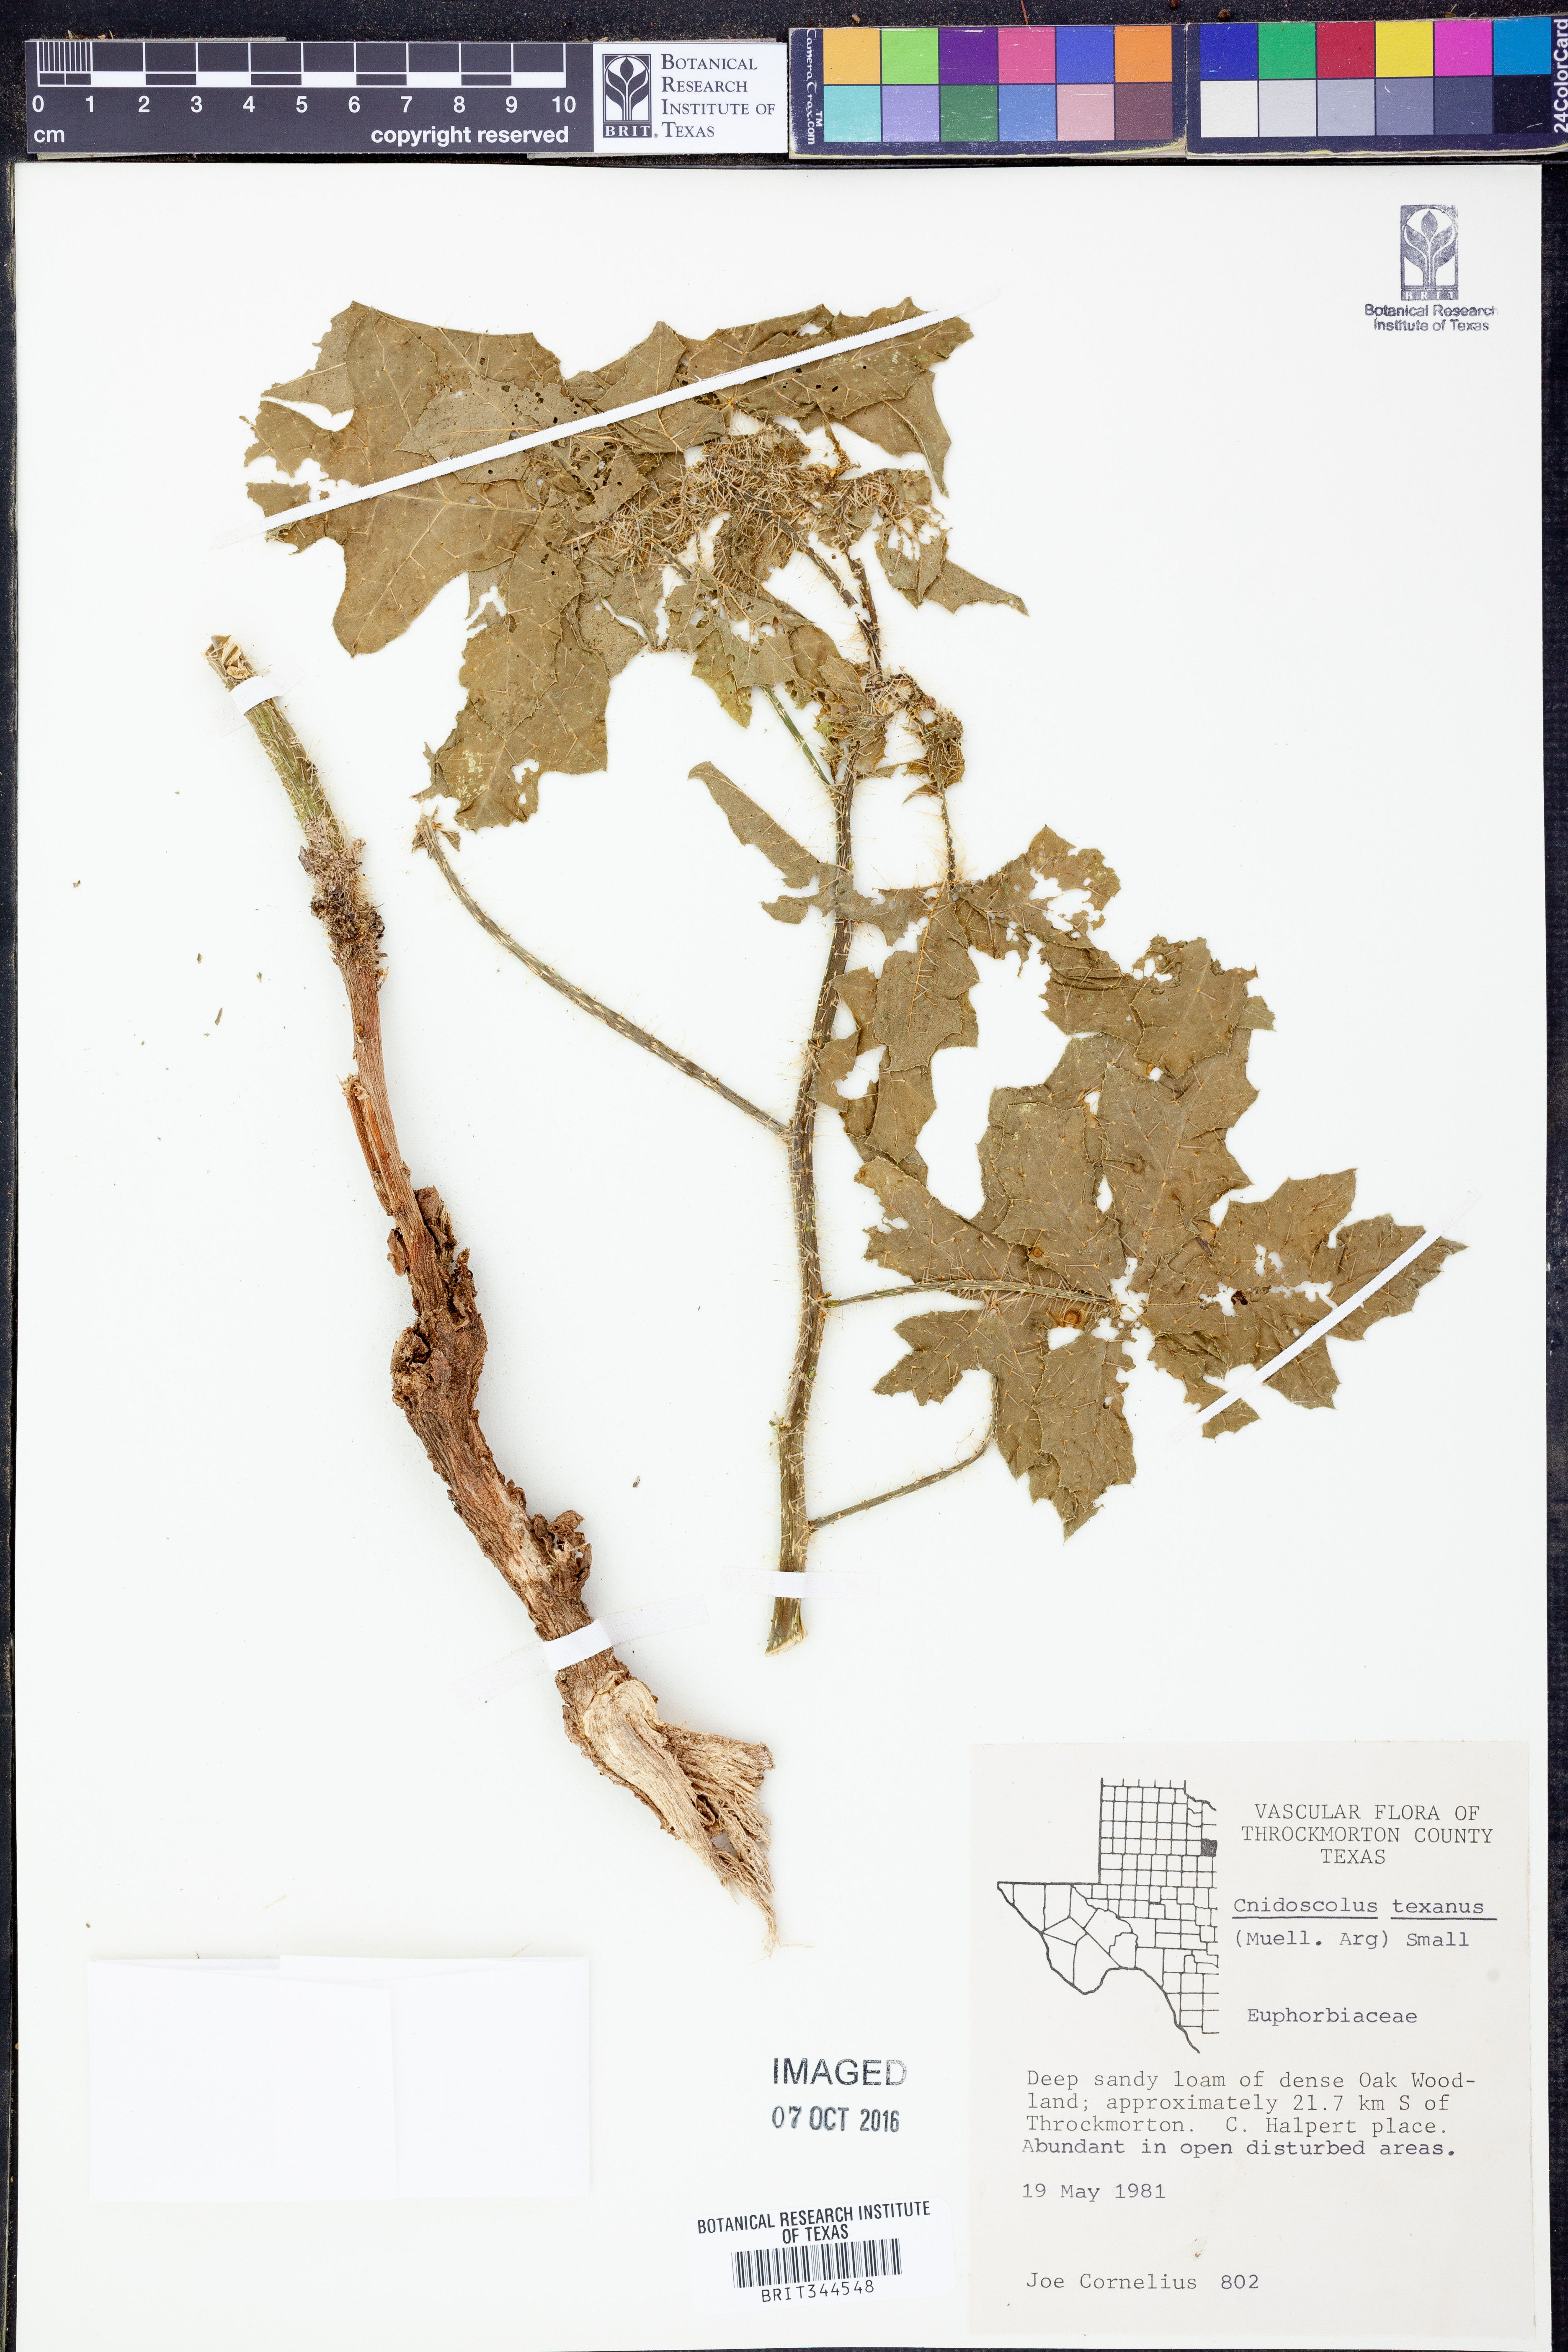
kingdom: Plantae
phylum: Tracheophyta
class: Magnoliopsida
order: Malpighiales
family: Euphorbiaceae
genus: Cnidoscolus
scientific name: Cnidoscolus texanus
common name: Texas bull-nettle
